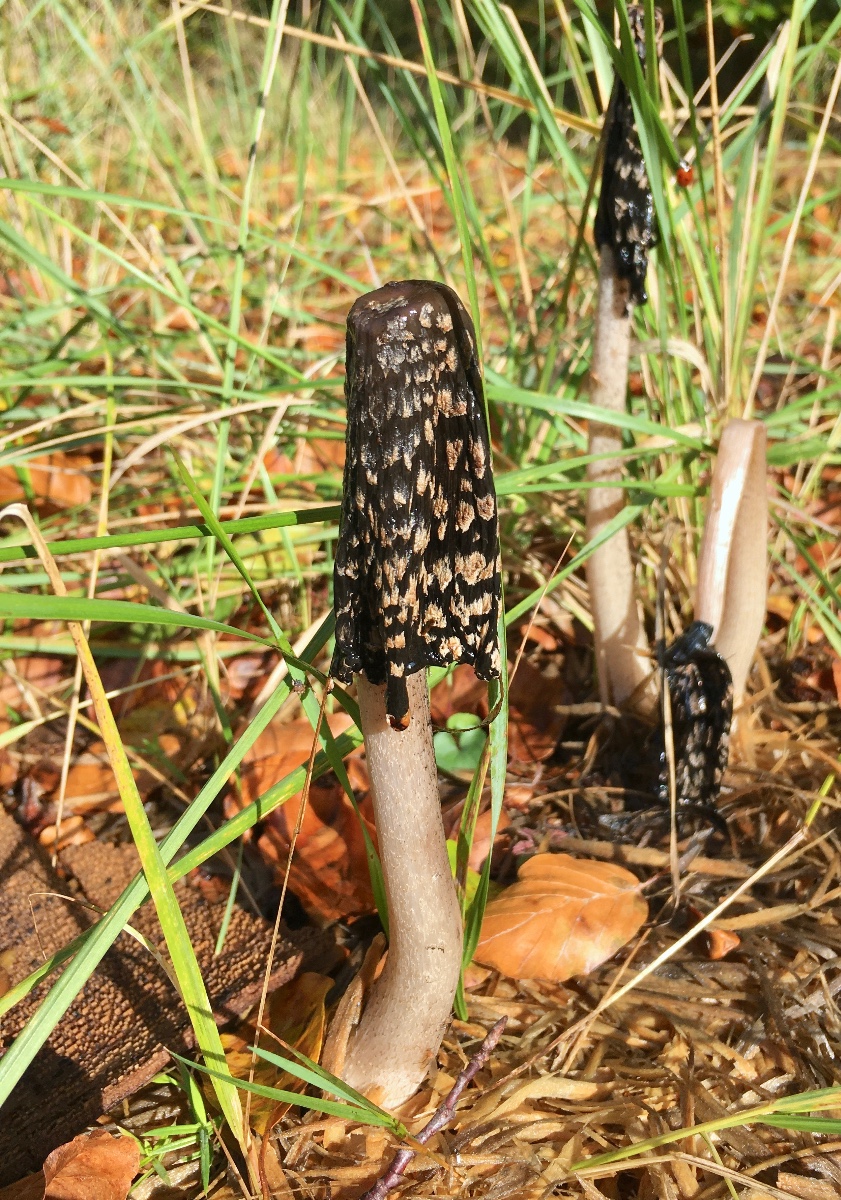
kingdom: Fungi
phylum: Basidiomycota
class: Agaricomycetes
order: Agaricales
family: Psathyrellaceae
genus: Coprinopsis
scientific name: Coprinopsis picacea
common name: skade-blækhat
